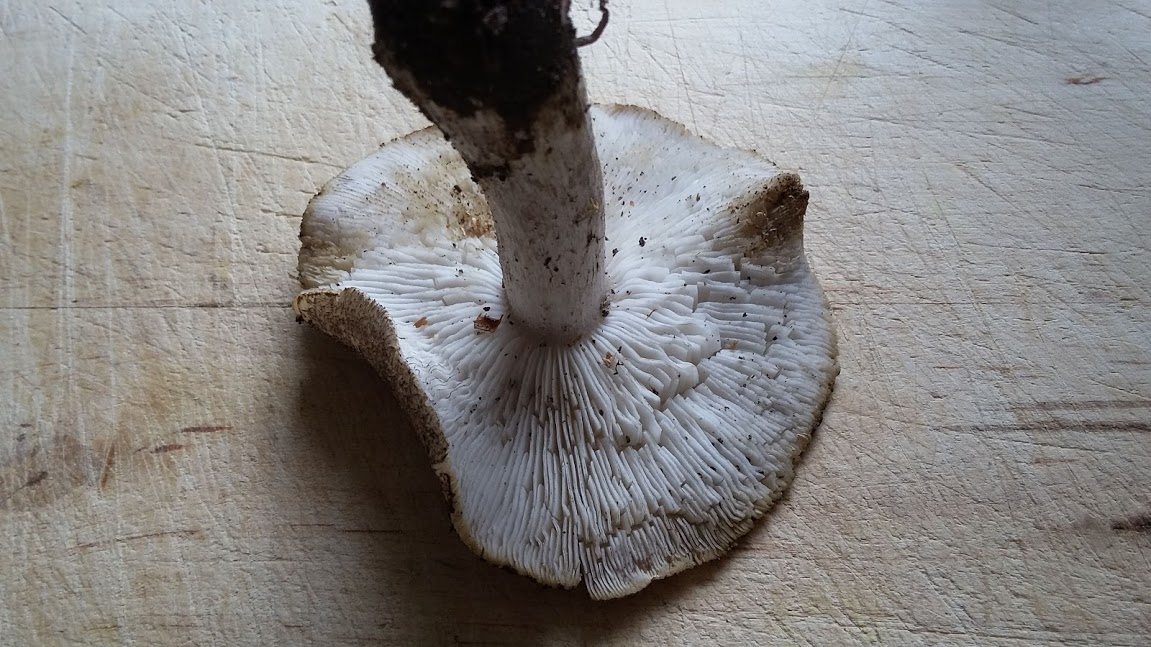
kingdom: Fungi
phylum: Basidiomycota
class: Agaricomycetes
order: Agaricales
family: Tricholomataceae
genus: Tricholoma
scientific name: Tricholoma
